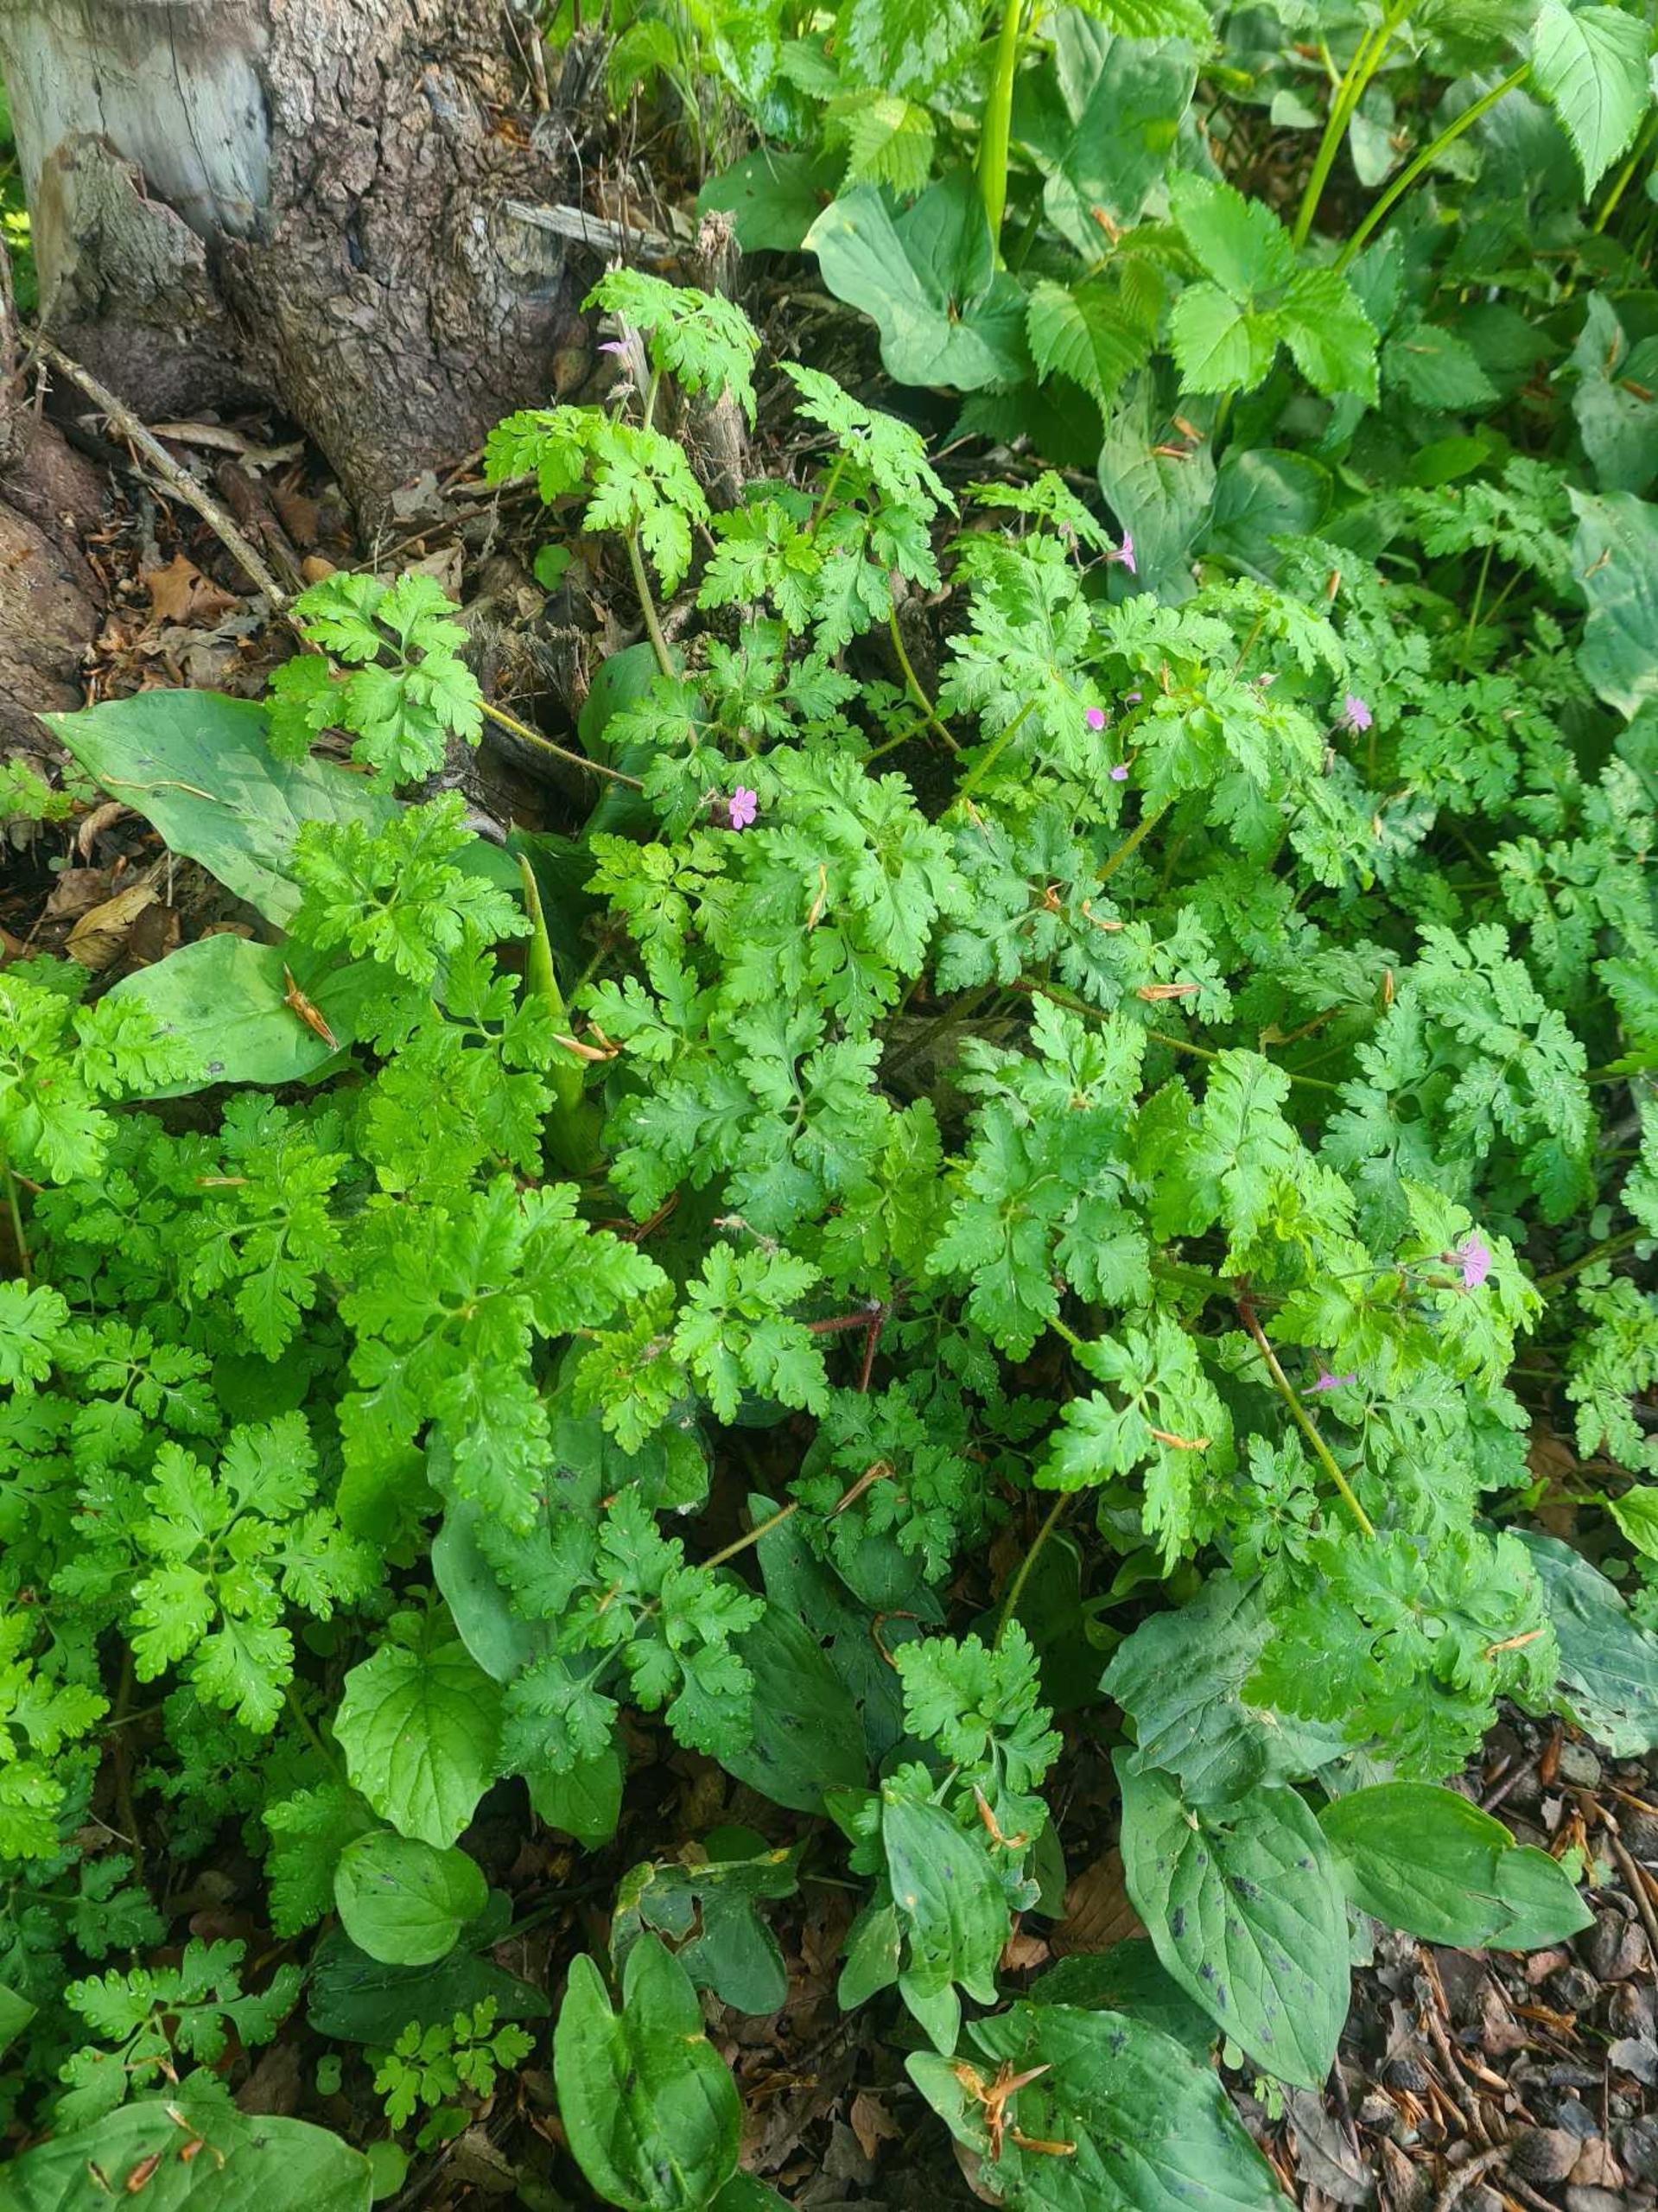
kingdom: Plantae
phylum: Tracheophyta
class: Magnoliopsida
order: Geraniales
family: Geraniaceae
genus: Geranium
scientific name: Geranium robertianum
